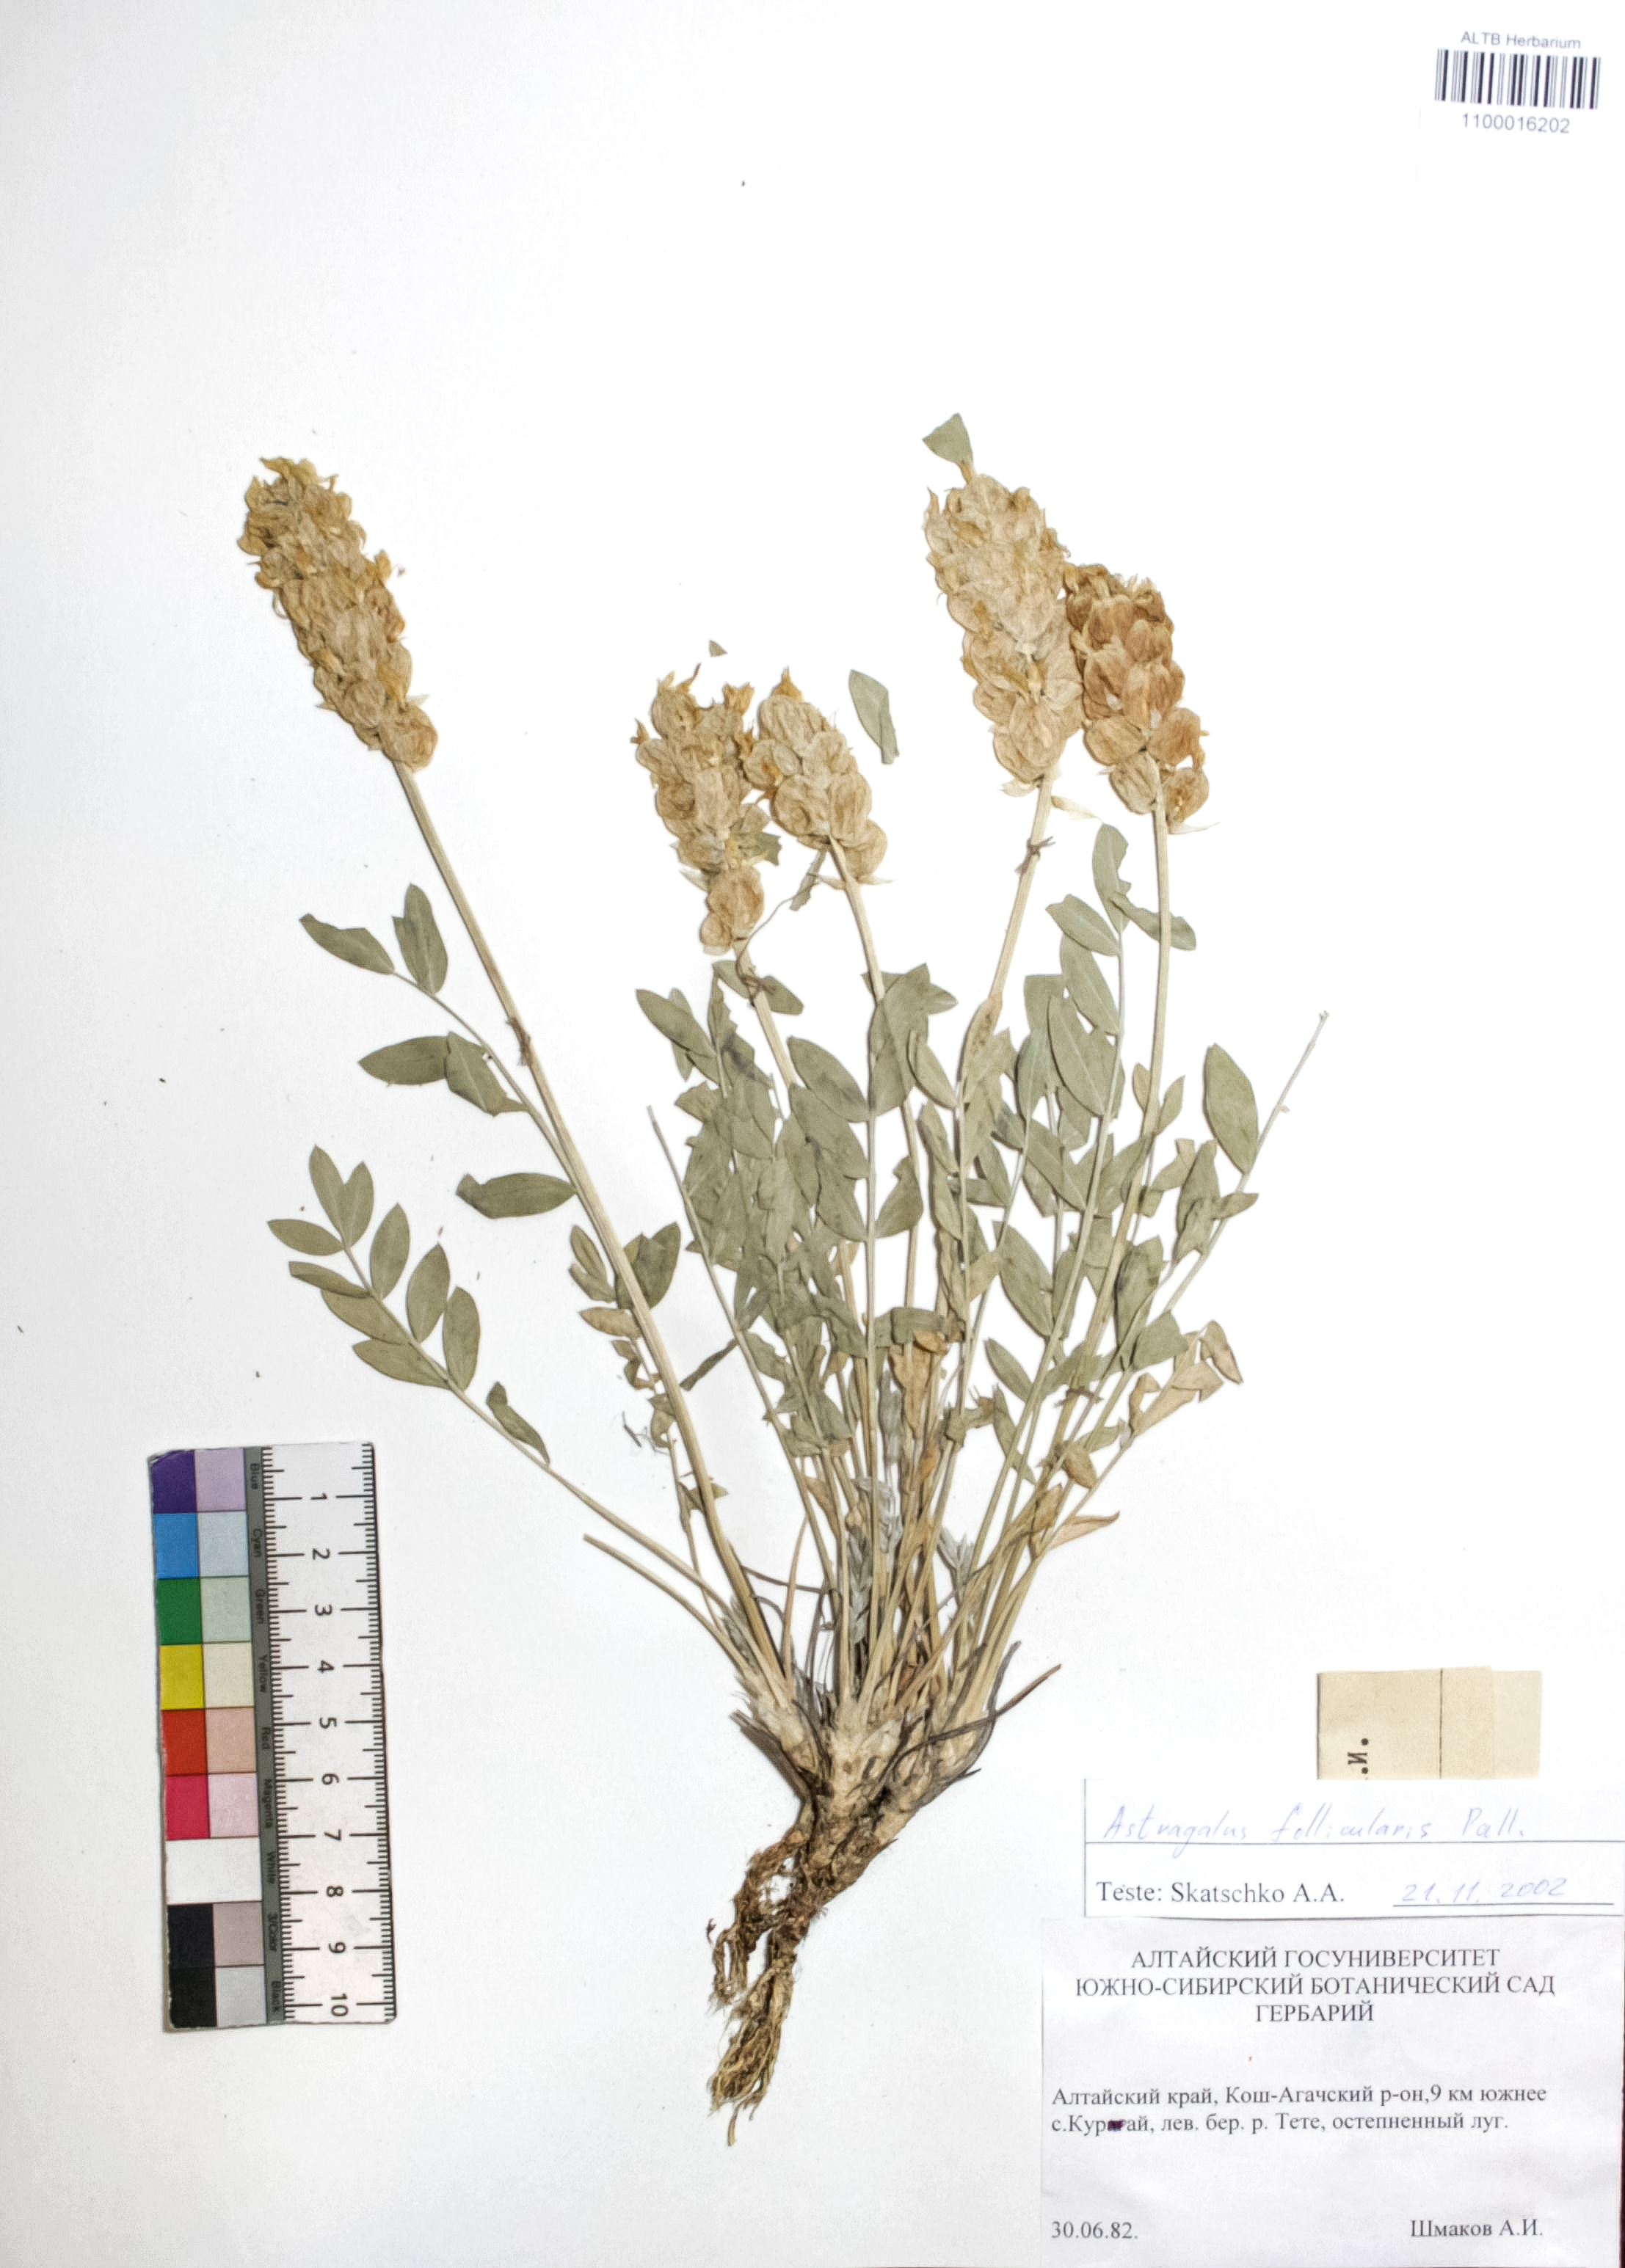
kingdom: Plantae
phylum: Tracheophyta
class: Magnoliopsida
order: Fabales
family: Fabaceae
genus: Astragalus
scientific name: Astragalus follicularis
